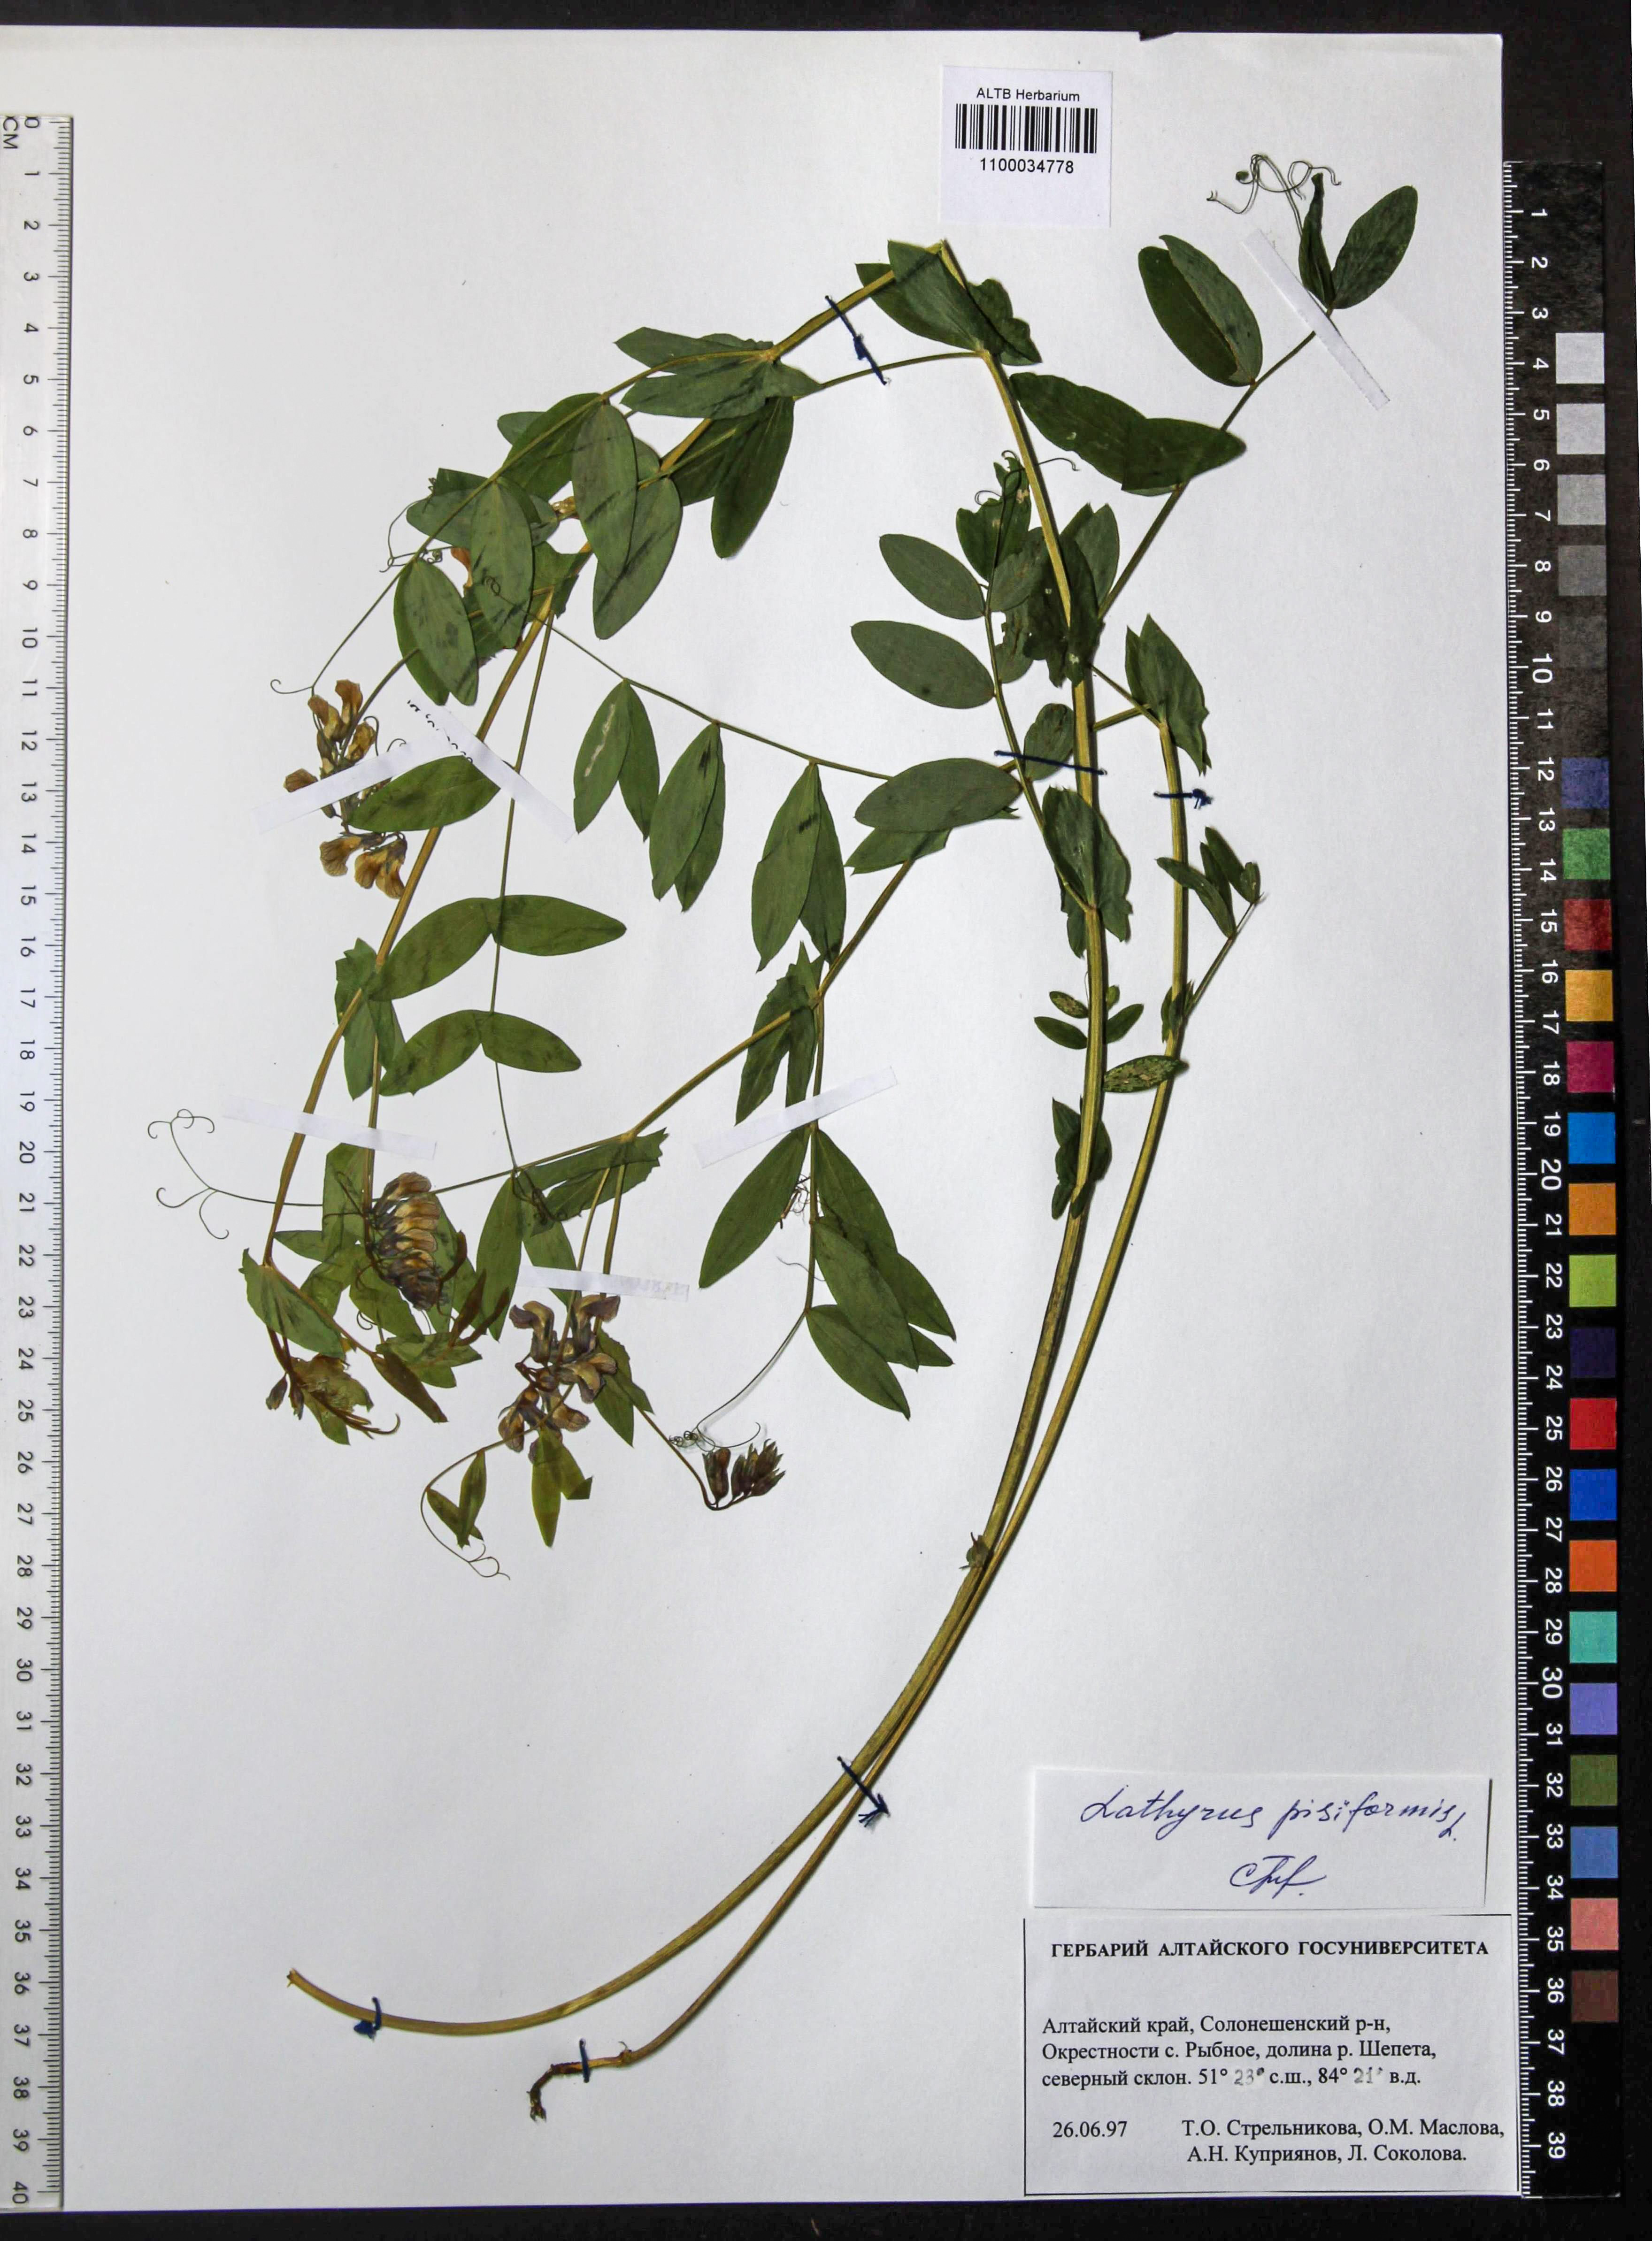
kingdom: Plantae
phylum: Tracheophyta
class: Magnoliopsida
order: Fabales
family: Fabaceae
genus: Lathyrus
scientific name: Lathyrus pisiformis
